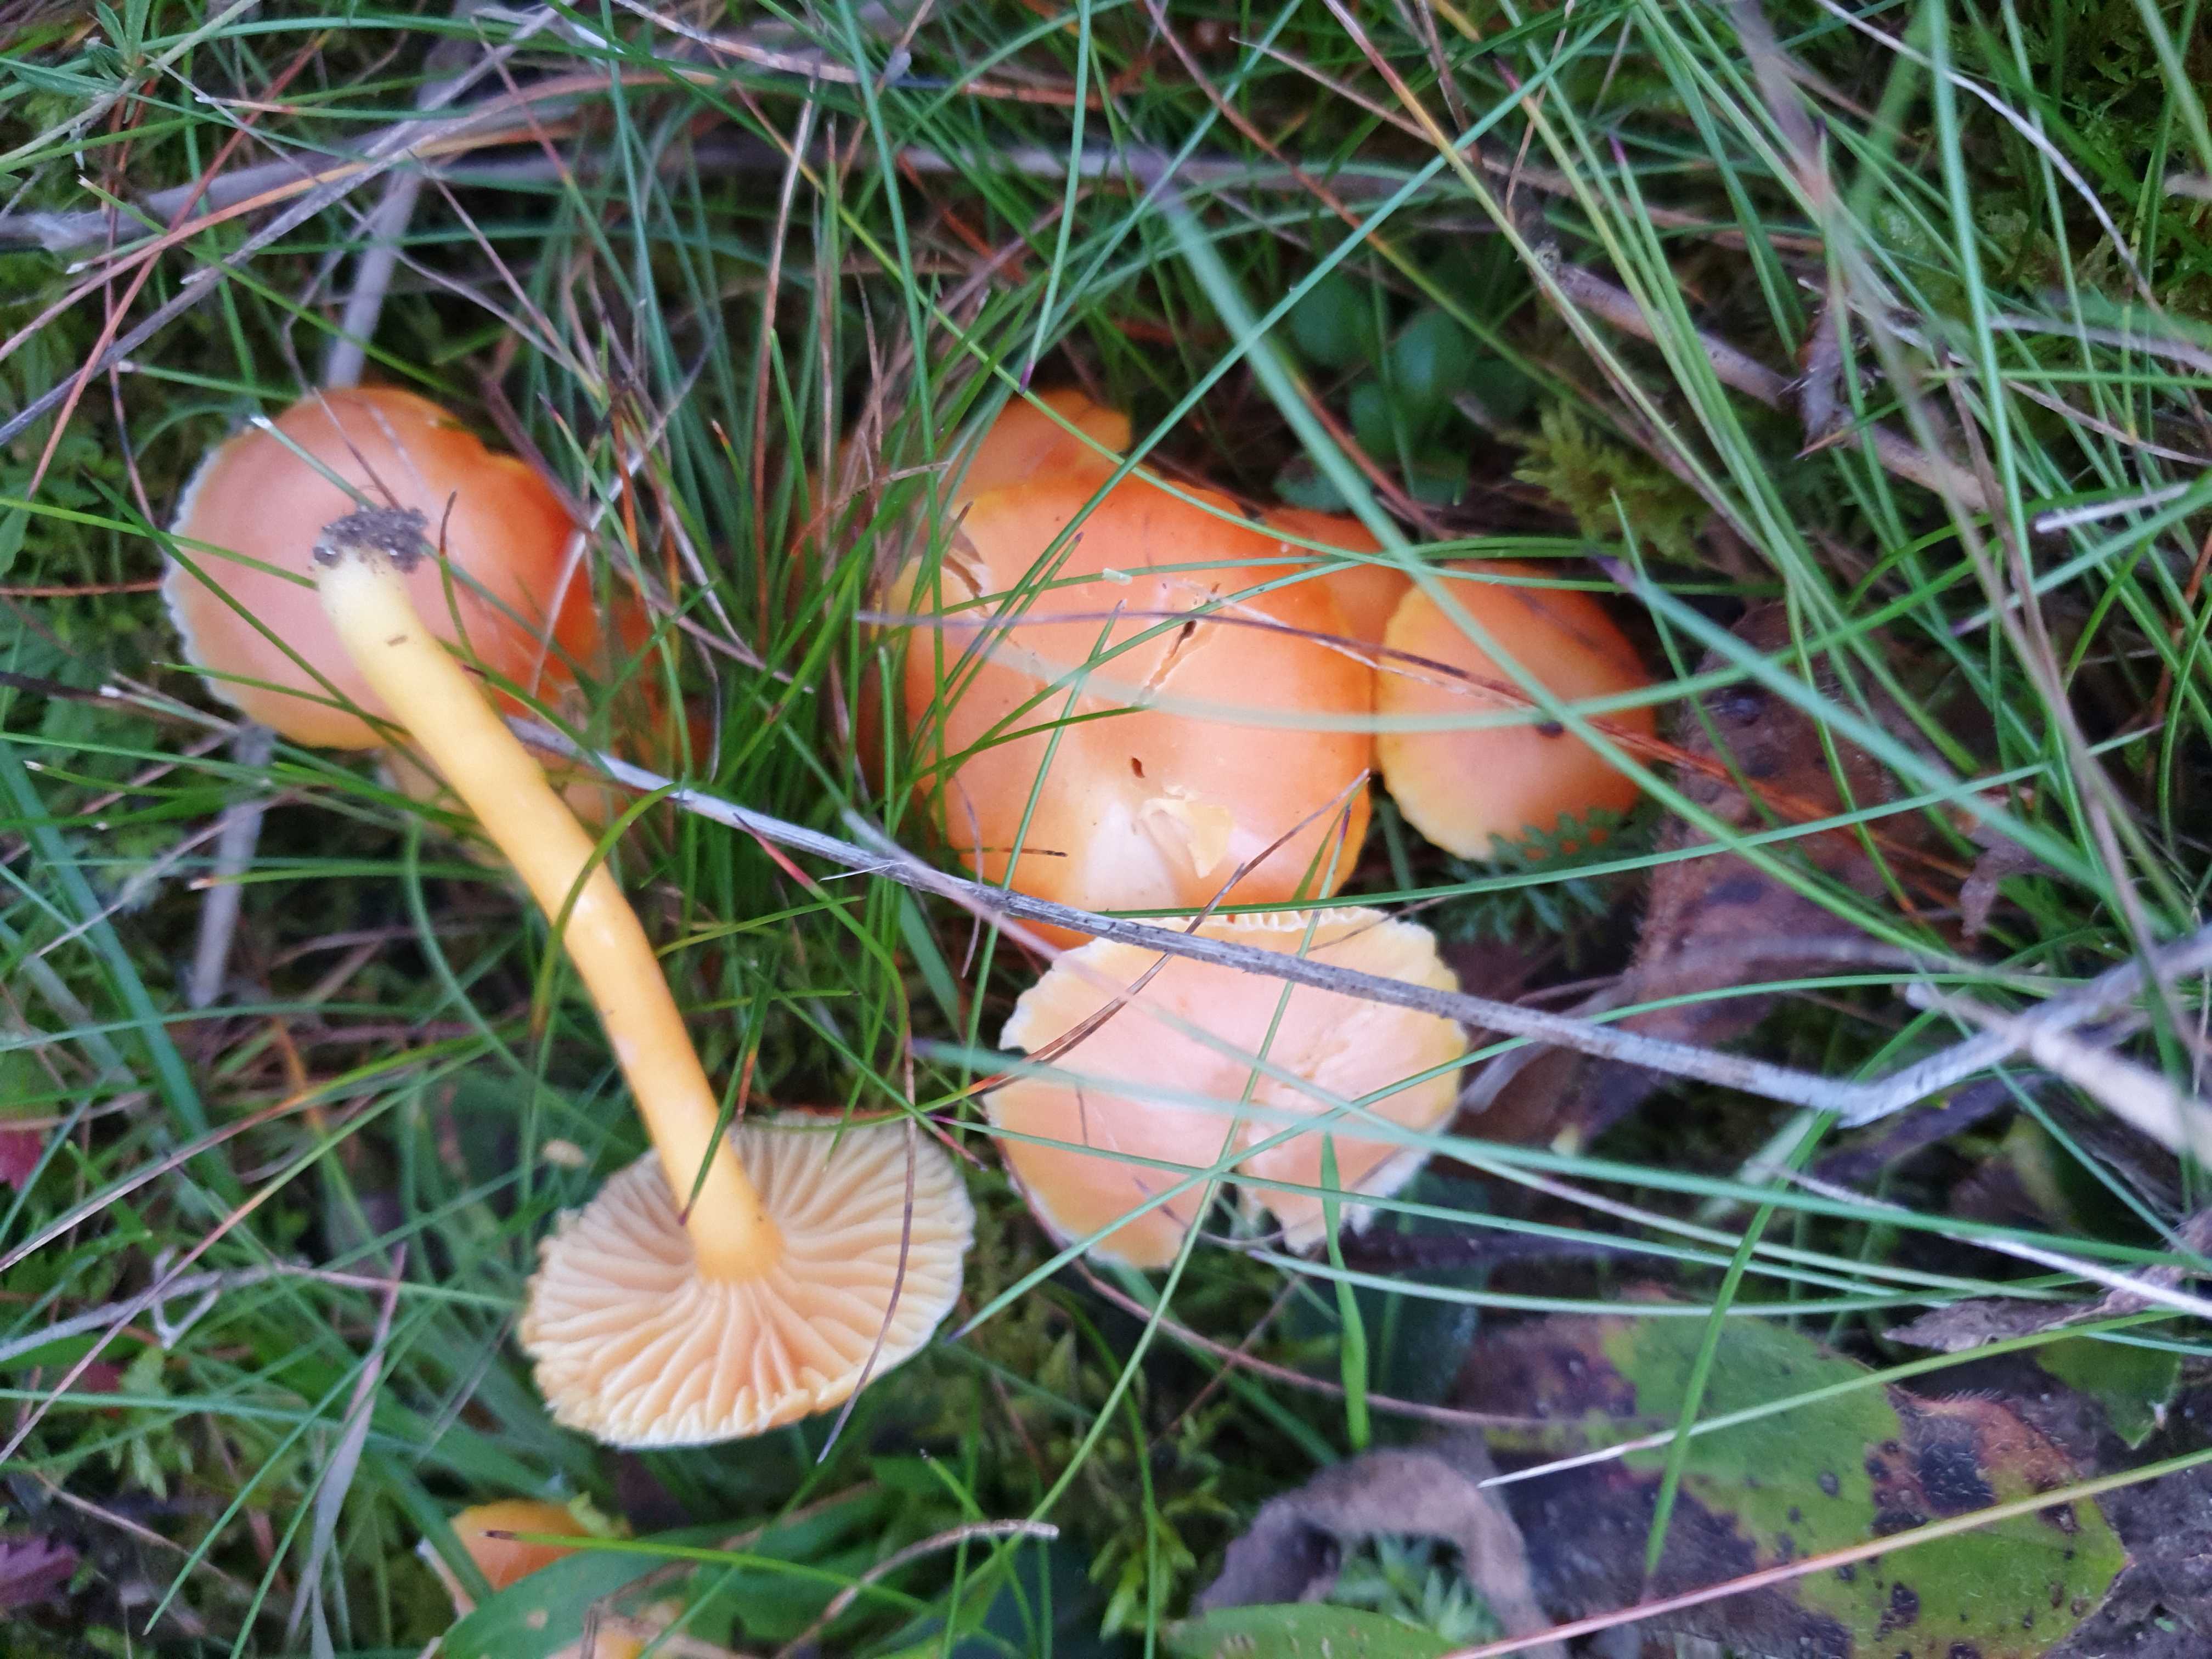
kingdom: Fungi
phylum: Basidiomycota
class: Agaricomycetes
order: Agaricales
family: Hygrophoraceae
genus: Hygrocybe
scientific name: Hygrocybe reidii
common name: honning-vokshat
